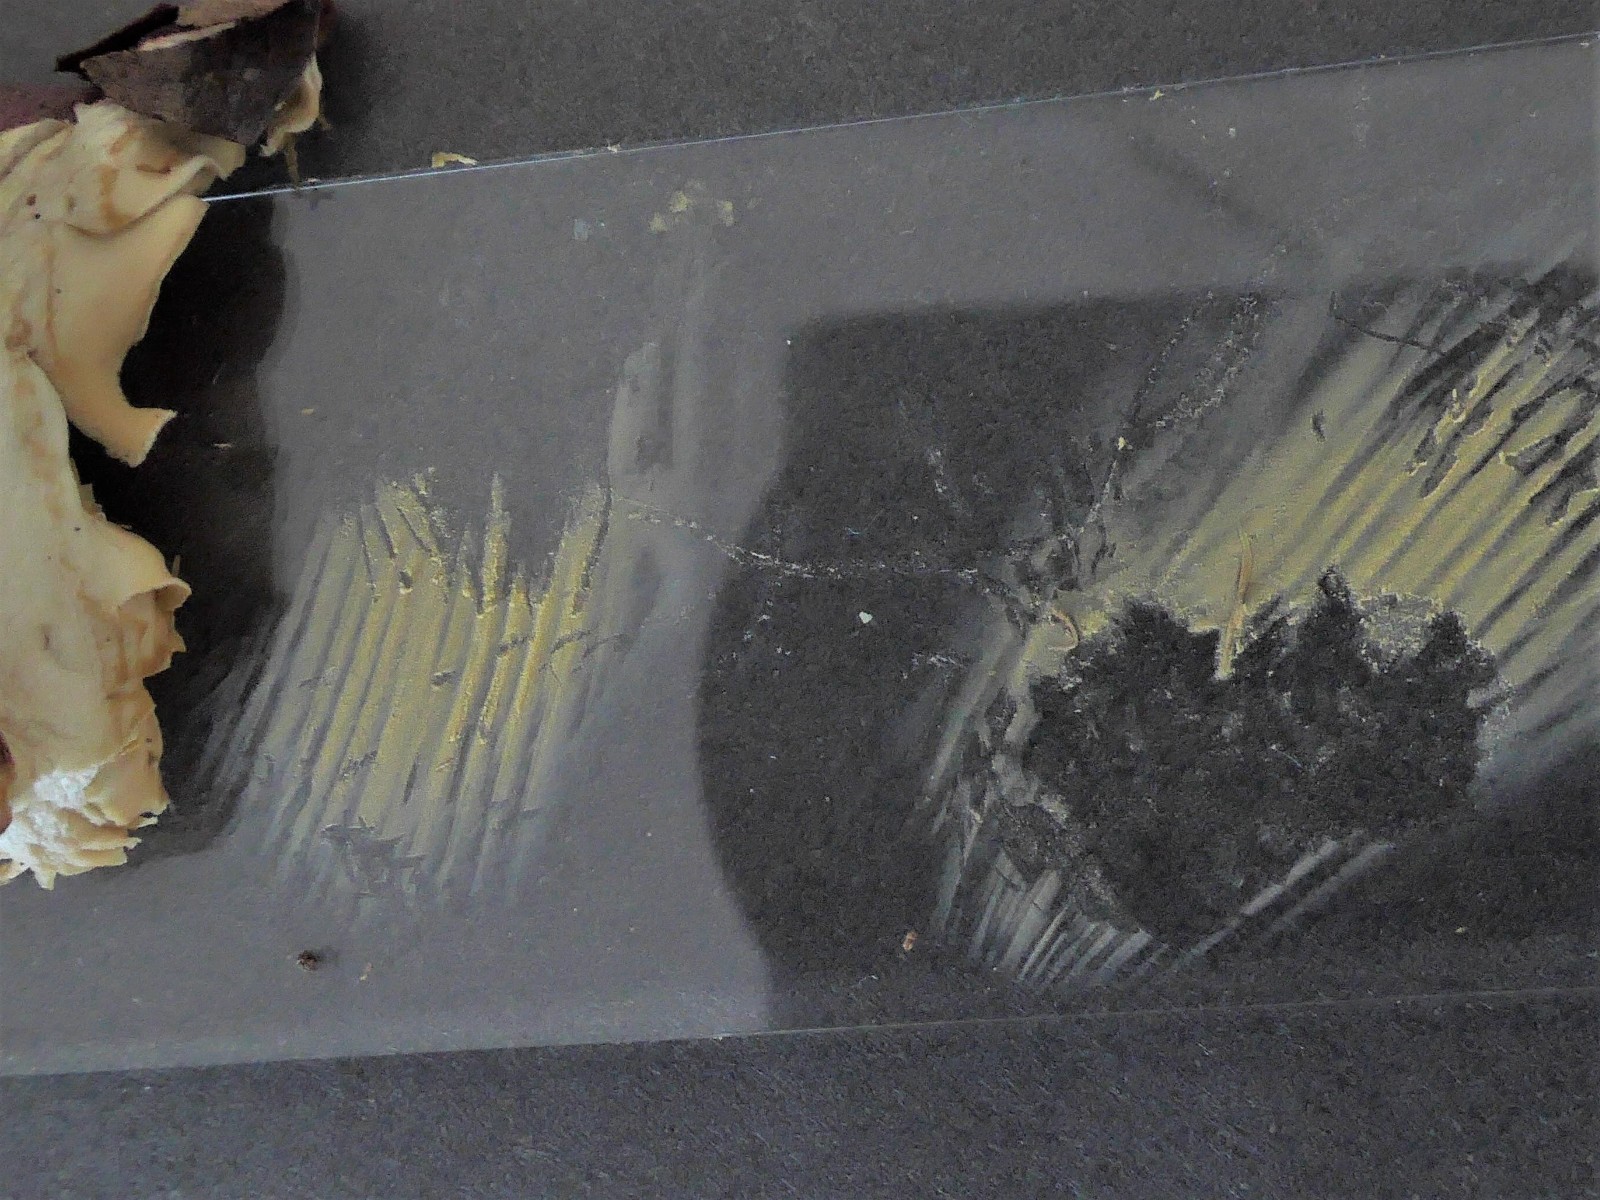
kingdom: Fungi
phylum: Basidiomycota
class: Agaricomycetes
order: Russulales
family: Russulaceae
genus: Russula
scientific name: Russula curtipes
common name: kortstokket skørhat
